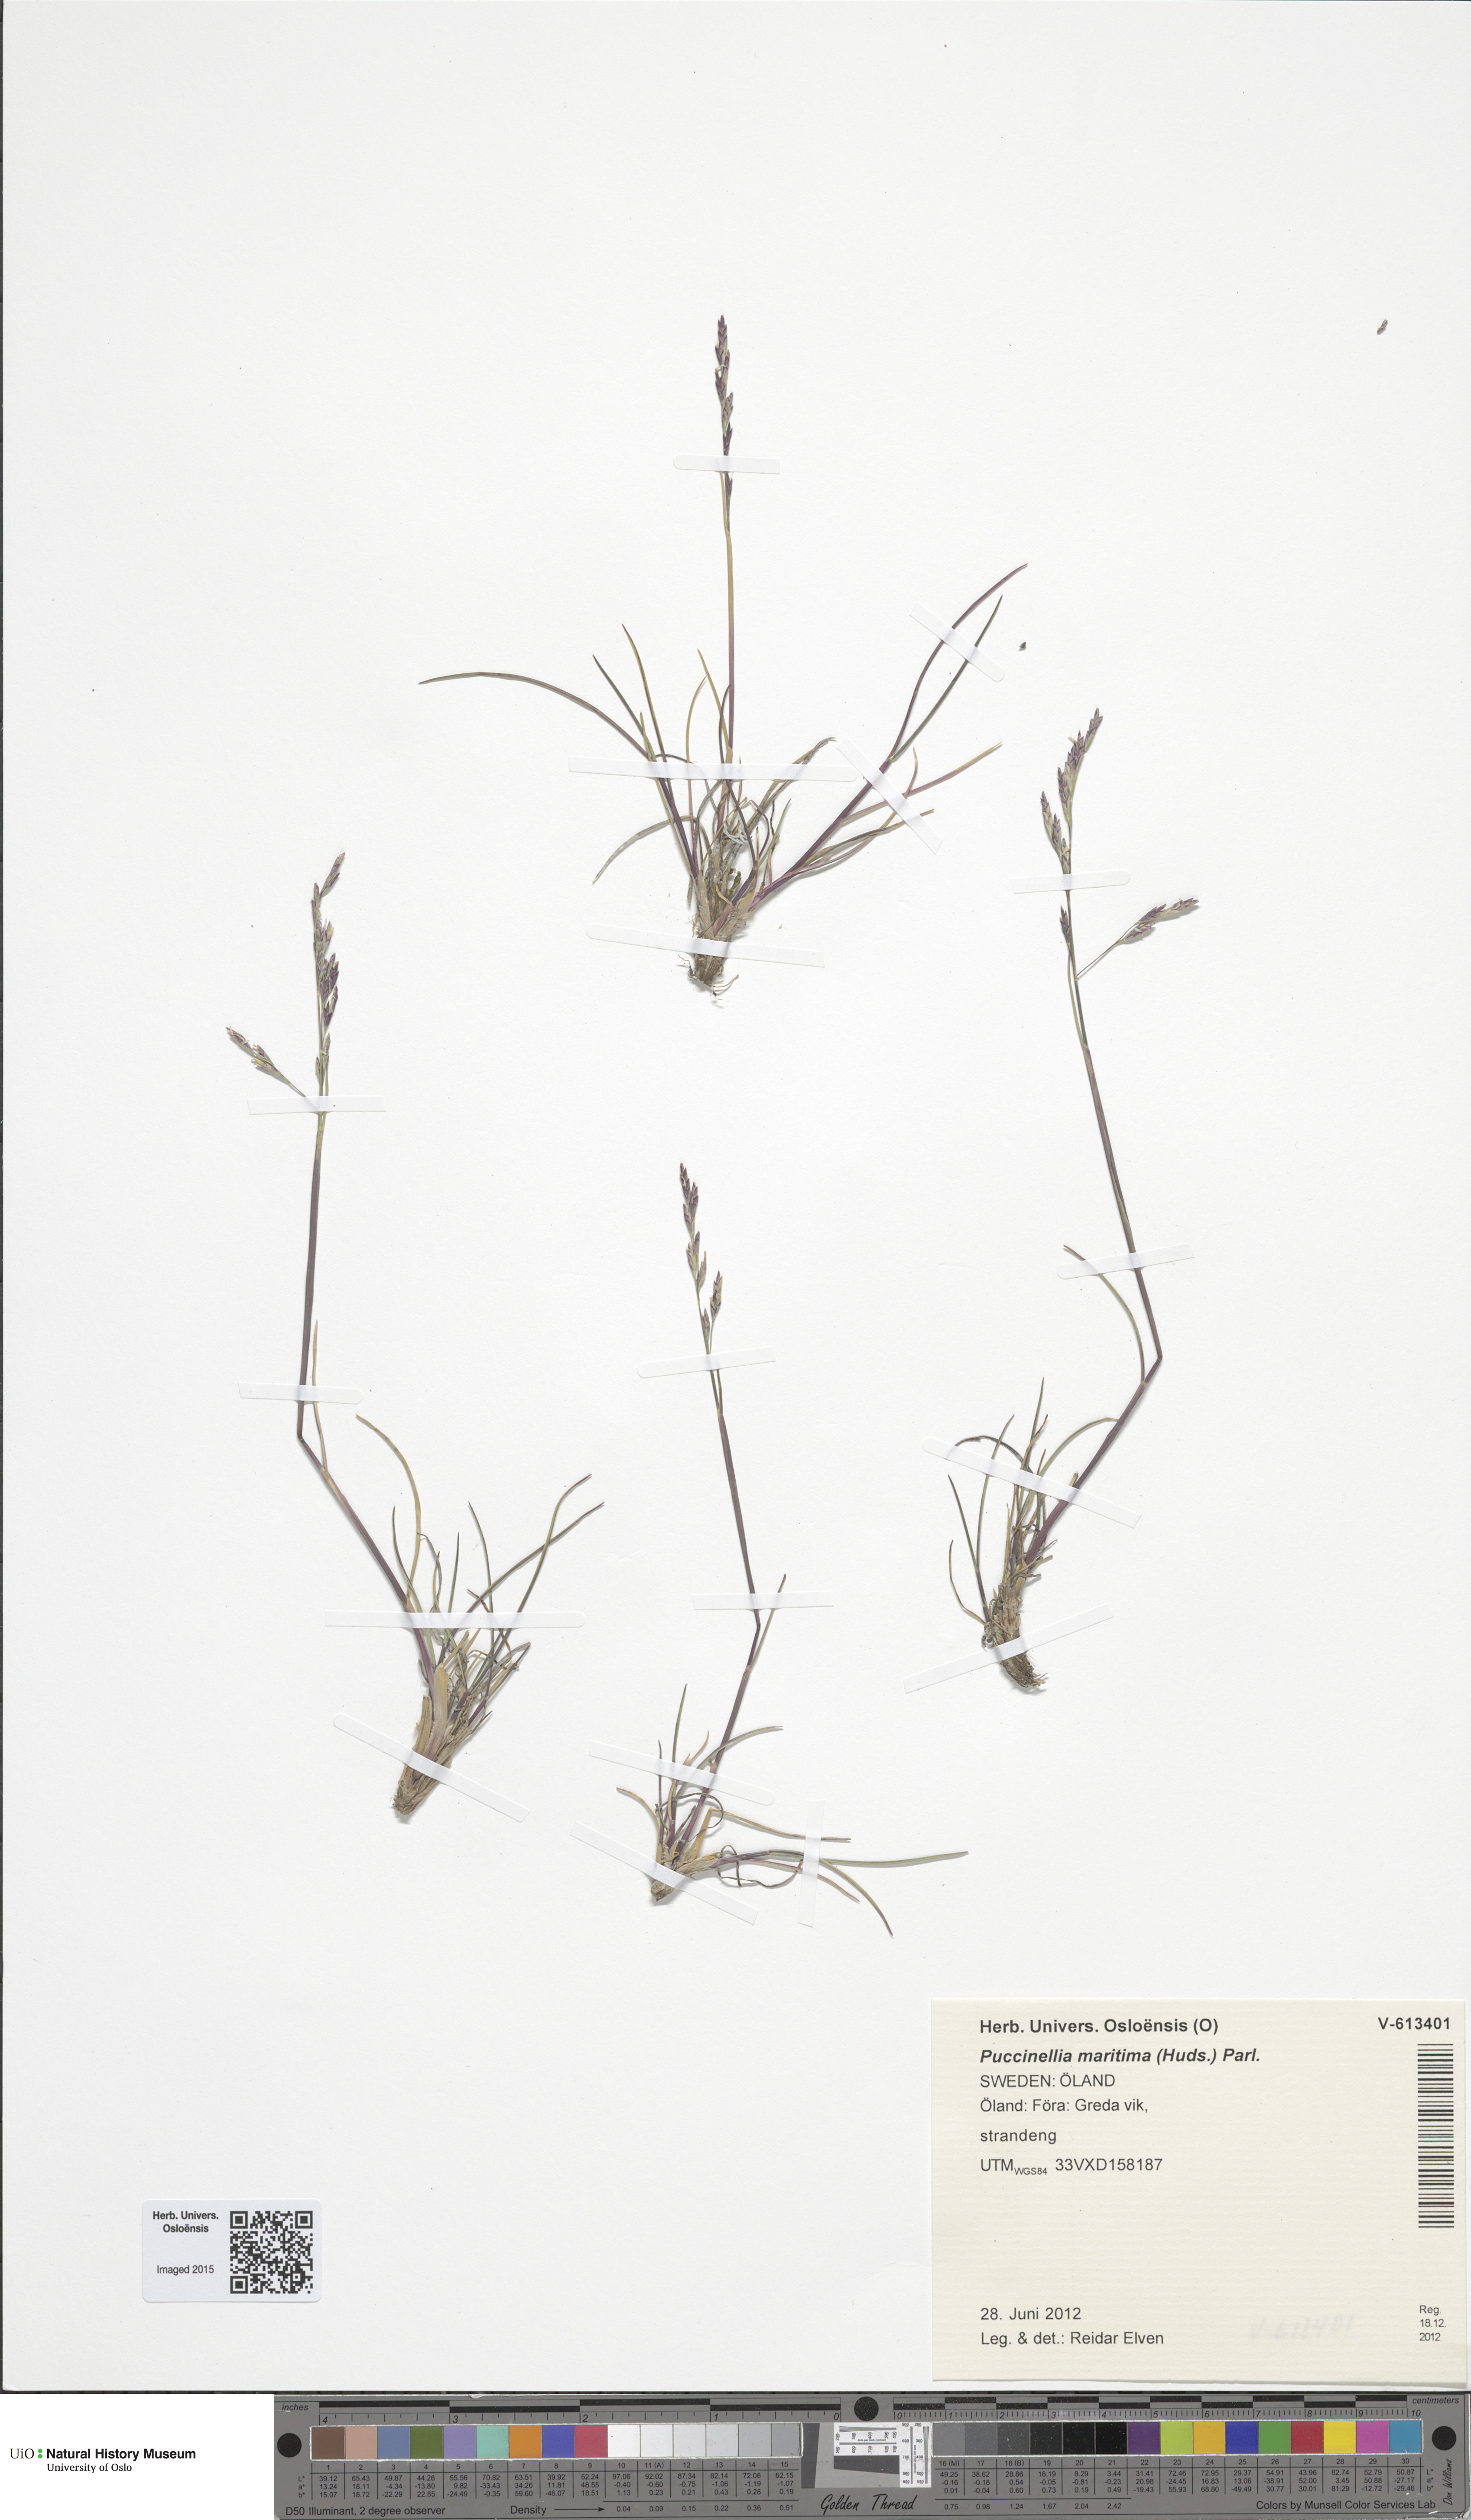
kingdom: Plantae
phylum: Tracheophyta
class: Liliopsida
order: Poales
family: Poaceae
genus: Puccinellia
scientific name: Puccinellia maritima
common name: Common saltmarsh grass
